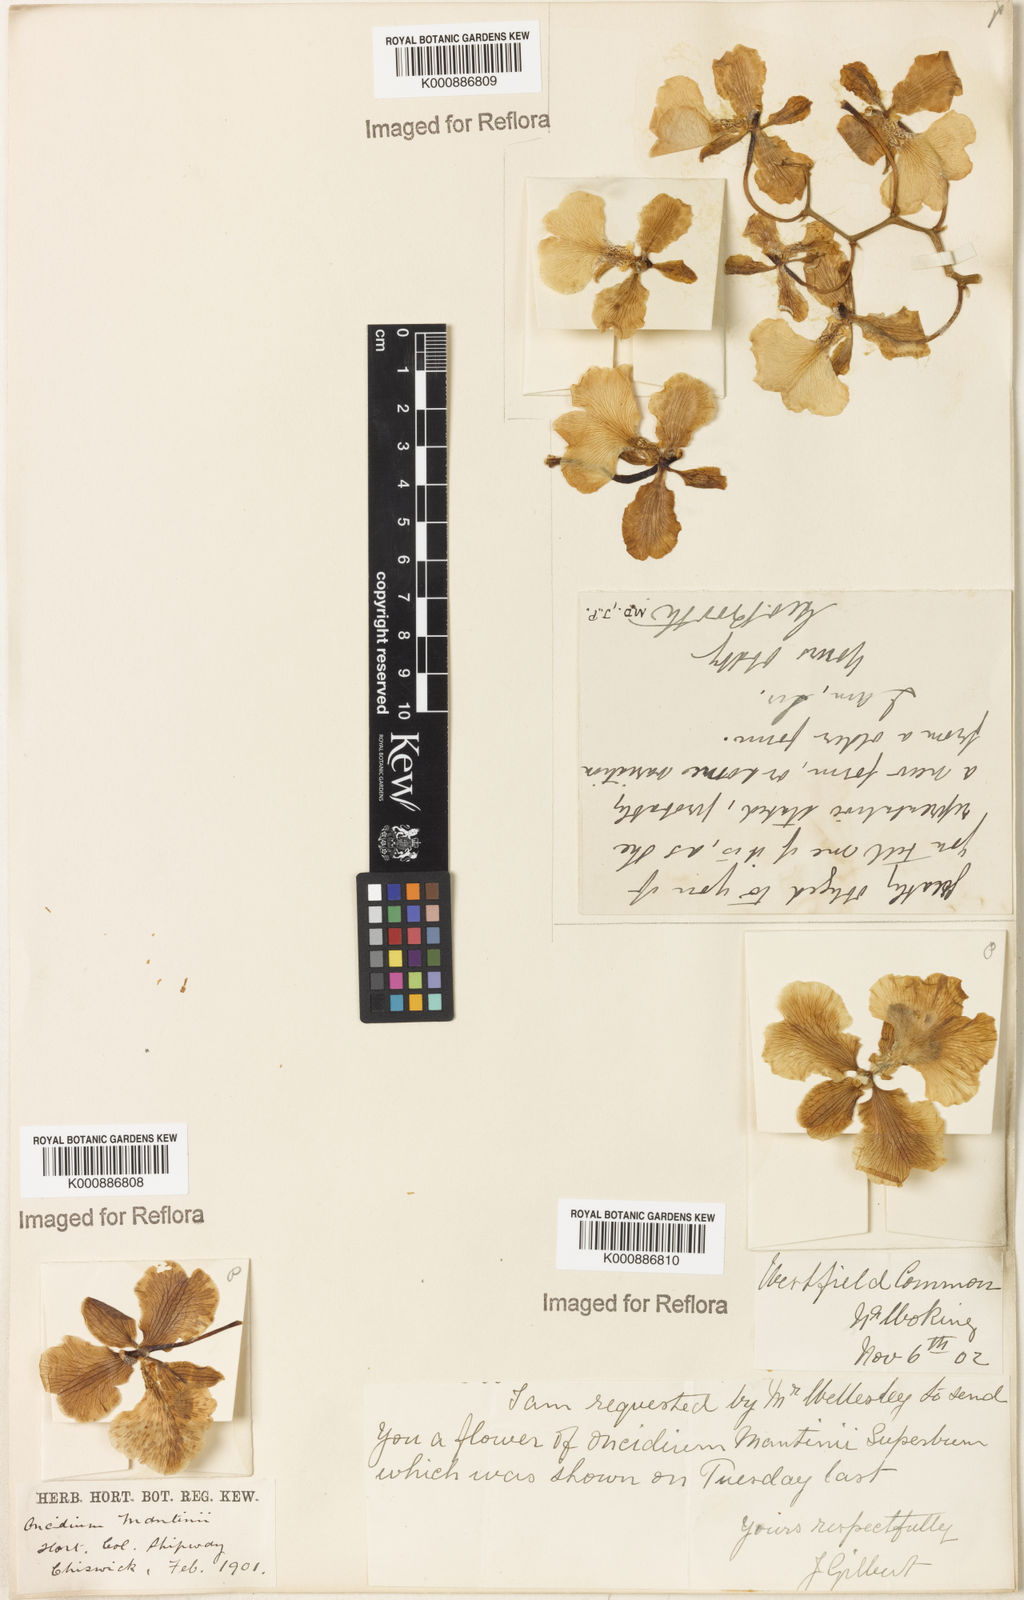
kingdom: Plantae
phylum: Tracheophyta
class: Liliopsida
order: Asparagales
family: Orchidaceae
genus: Gomesa
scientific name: Gomesa lita
